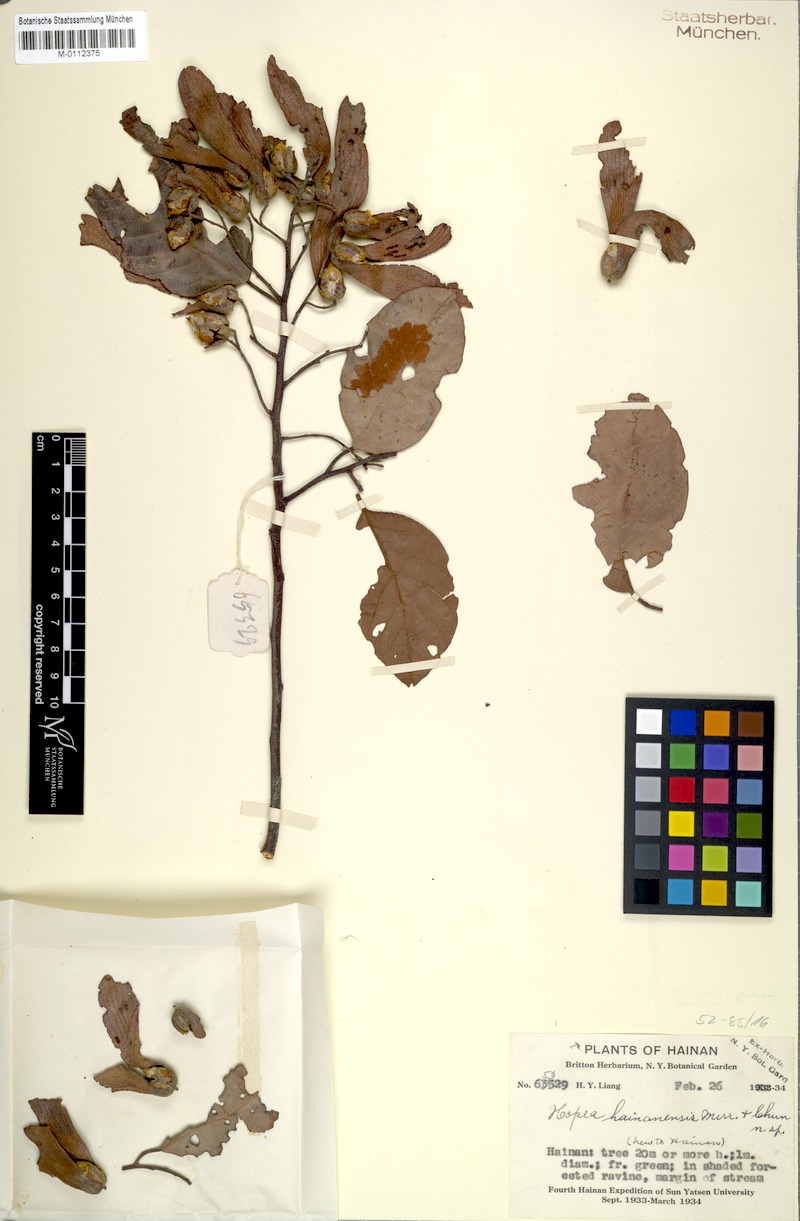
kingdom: Plantae
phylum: Tracheophyta
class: Magnoliopsida
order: Malvales
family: Dipterocarpaceae
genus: Hopea
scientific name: Hopea hainanensis
